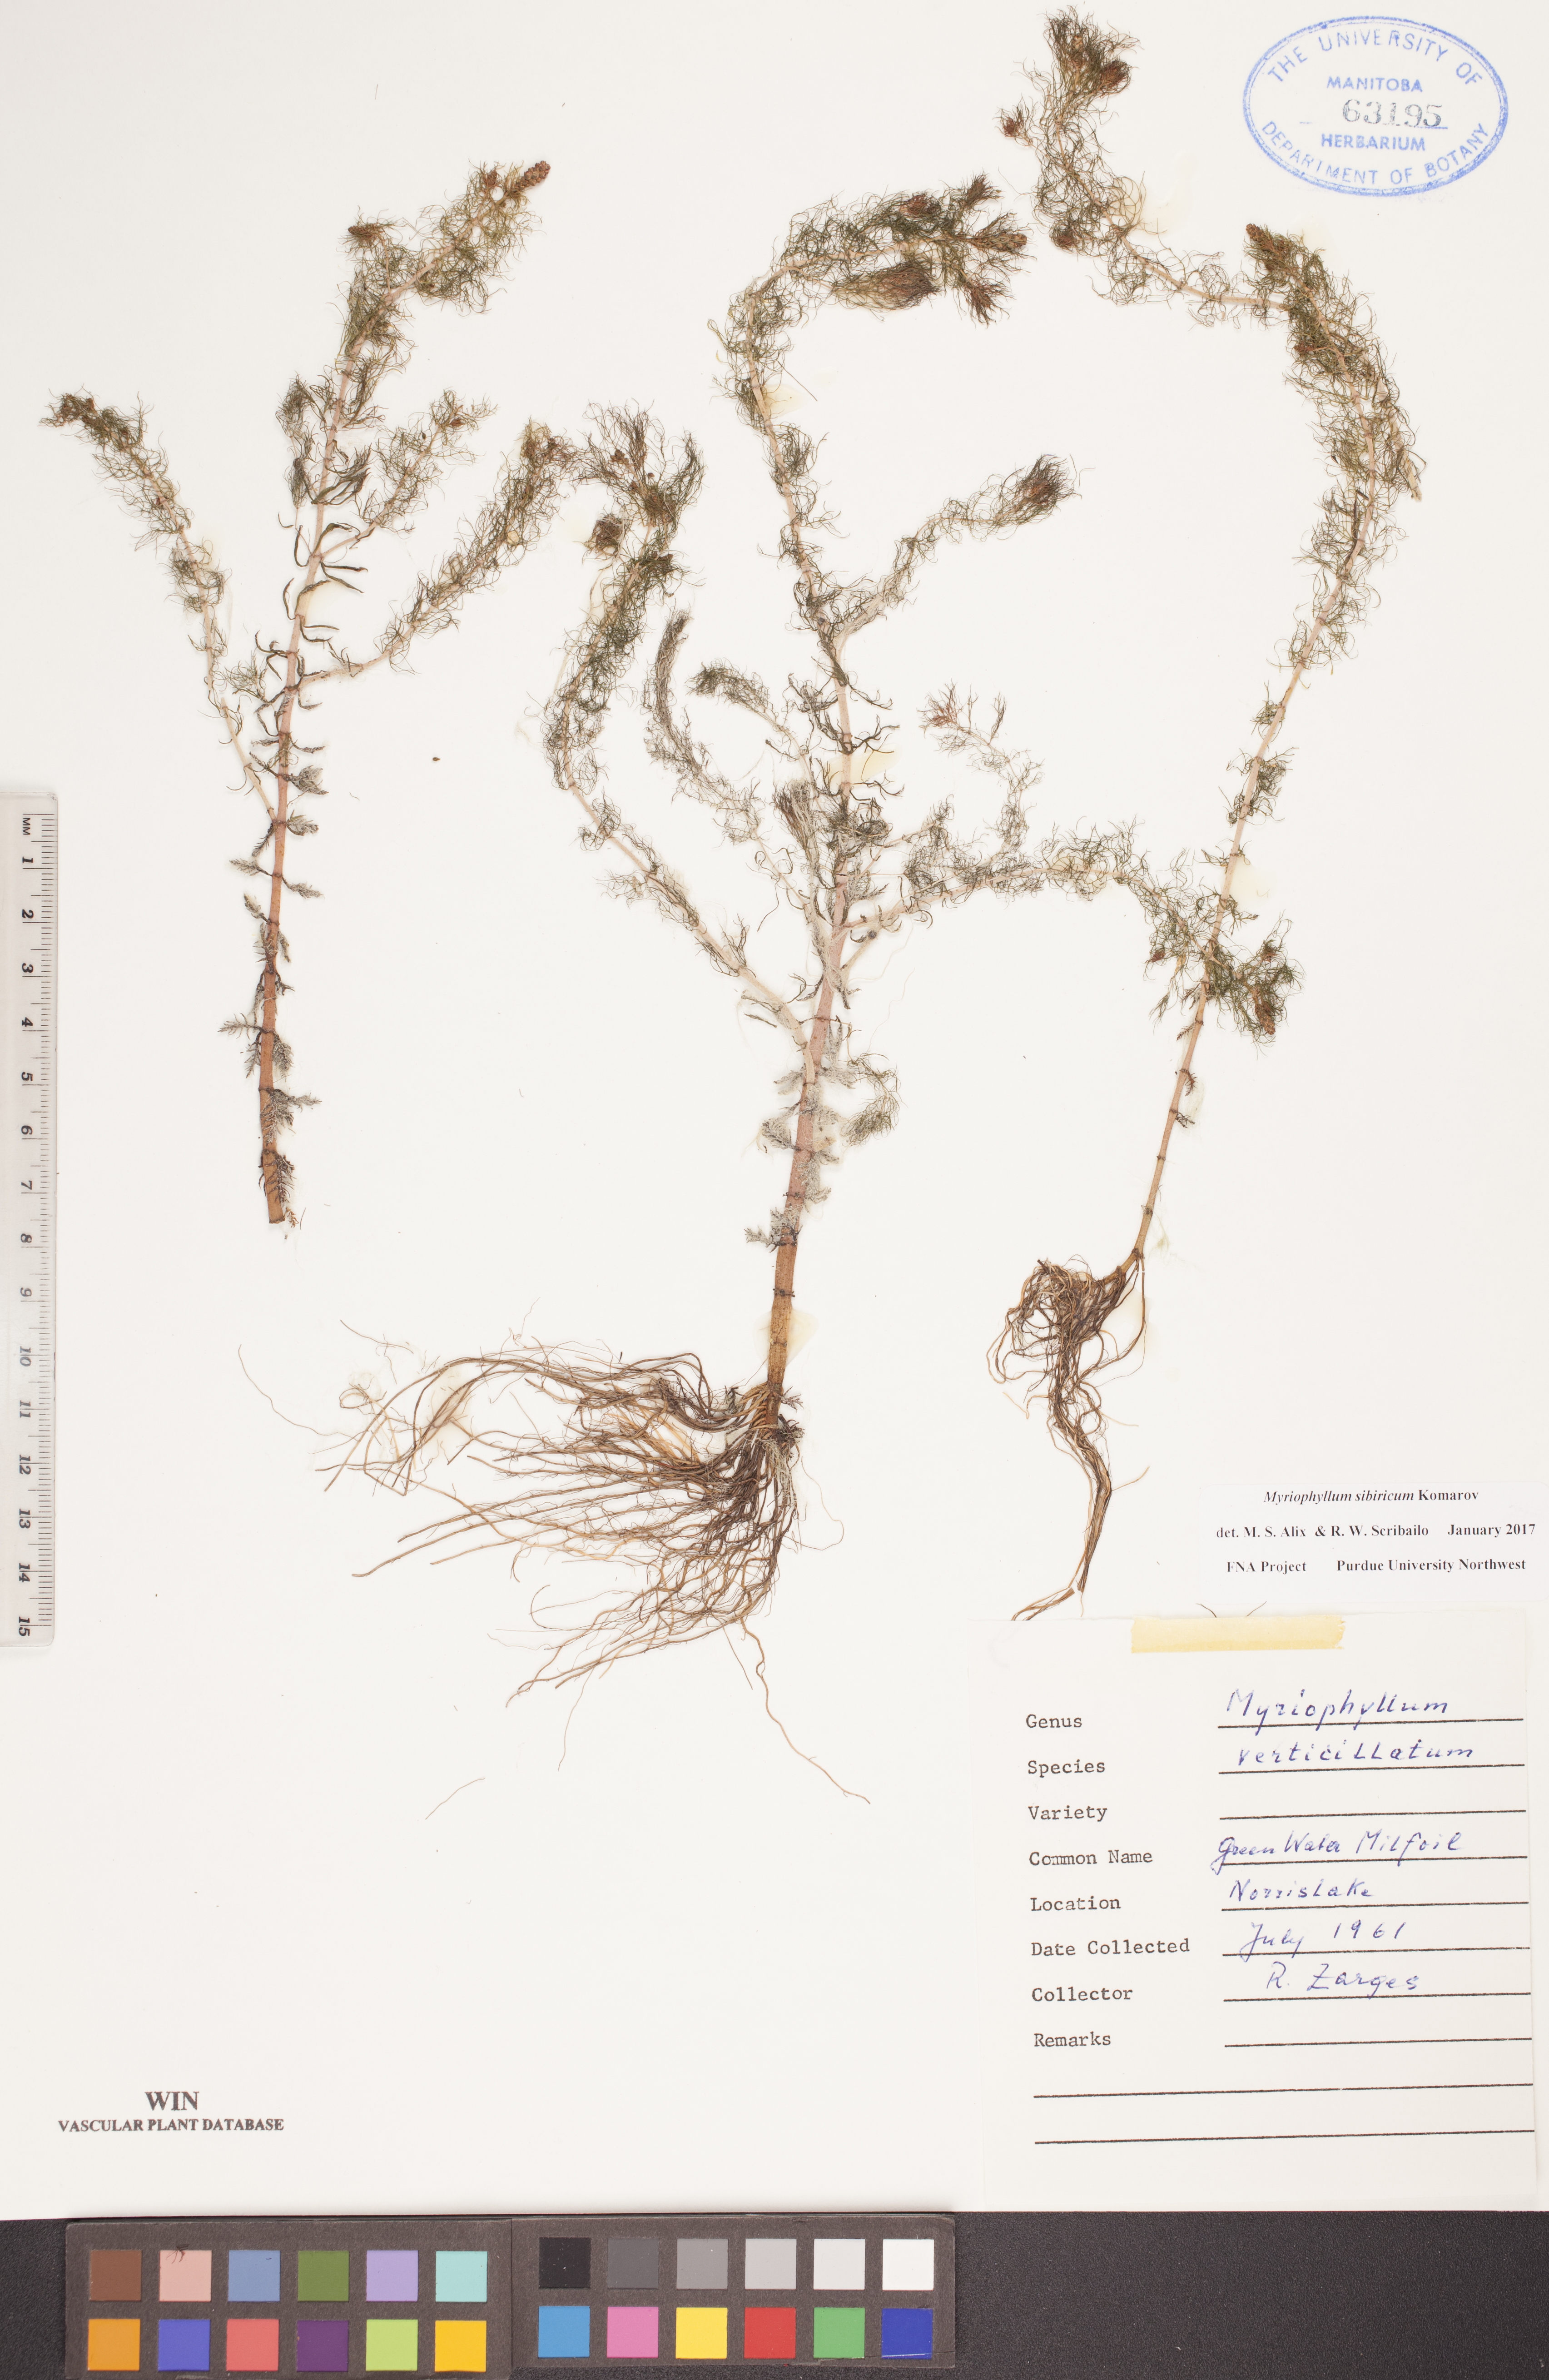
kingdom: Plantae
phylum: Tracheophyta
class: Magnoliopsida
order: Saxifragales
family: Haloragaceae
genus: Myriophyllum
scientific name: Myriophyllum sibiricum
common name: Siberian water-milfoil
